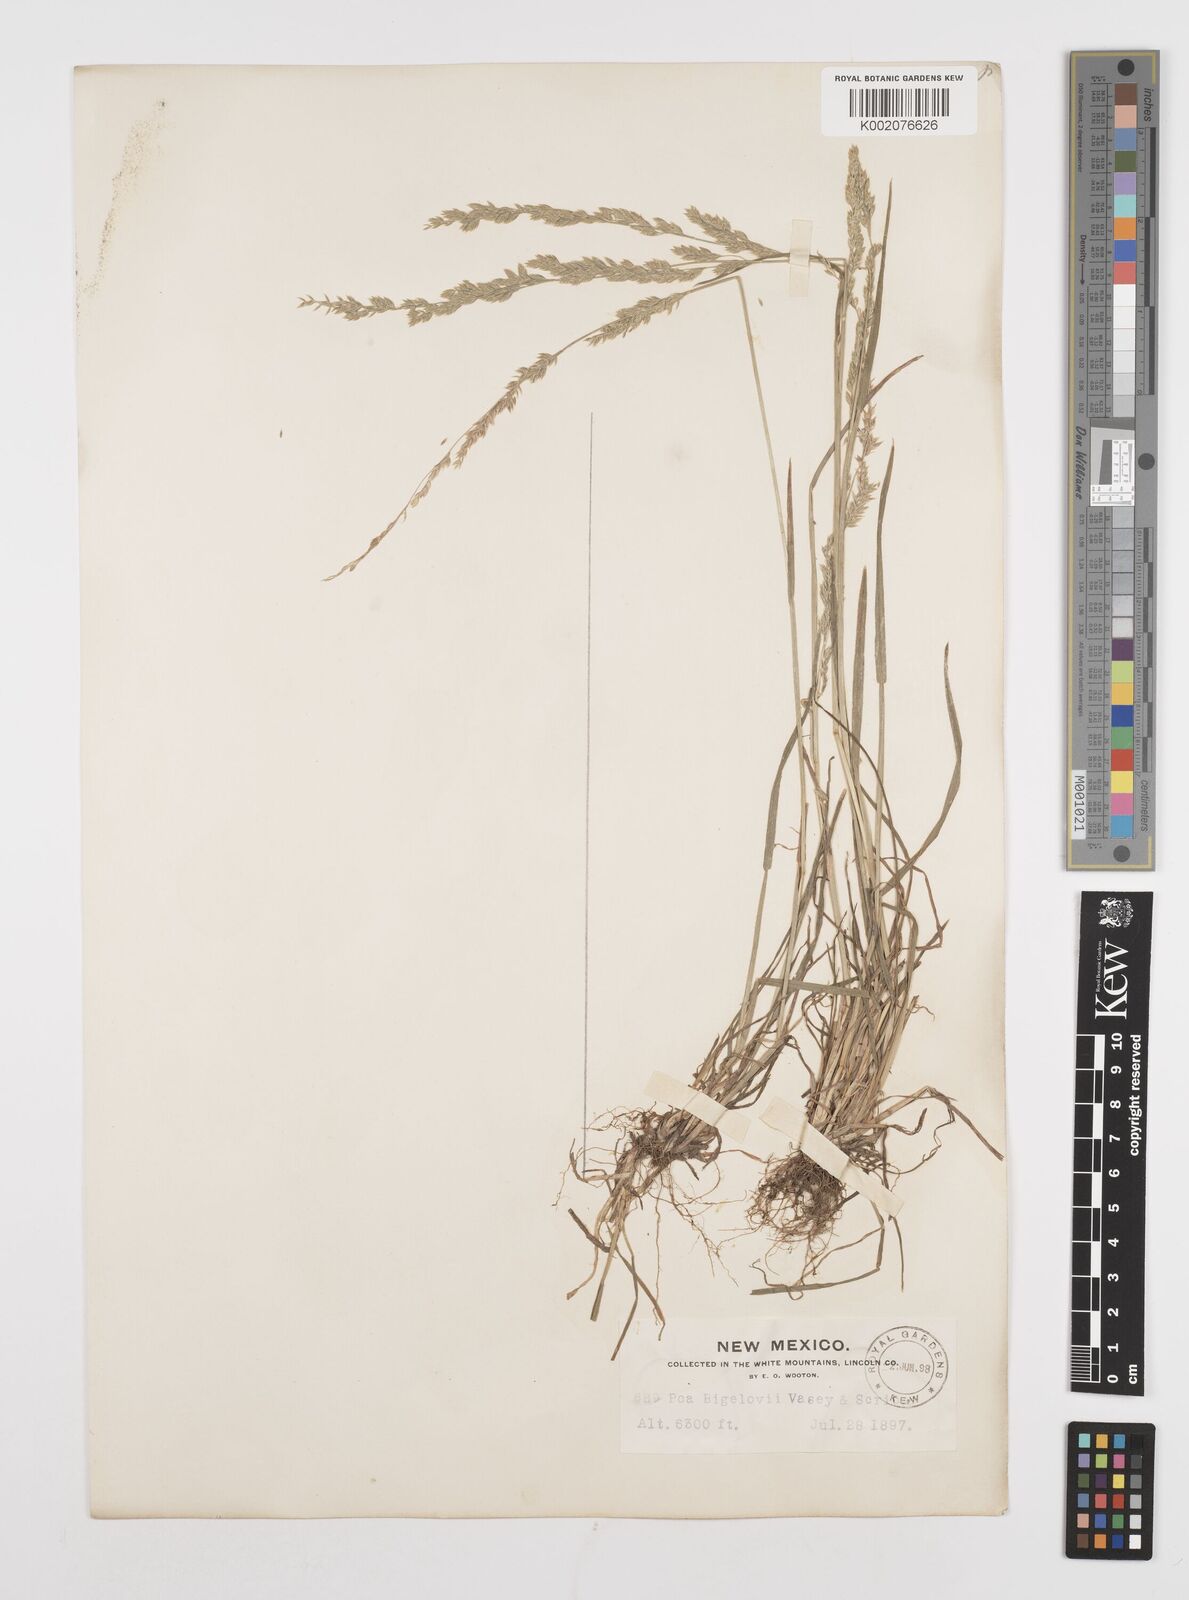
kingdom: Plantae
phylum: Tracheophyta
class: Liliopsida
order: Poales
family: Poaceae
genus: Poa
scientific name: Poa bigelovii
